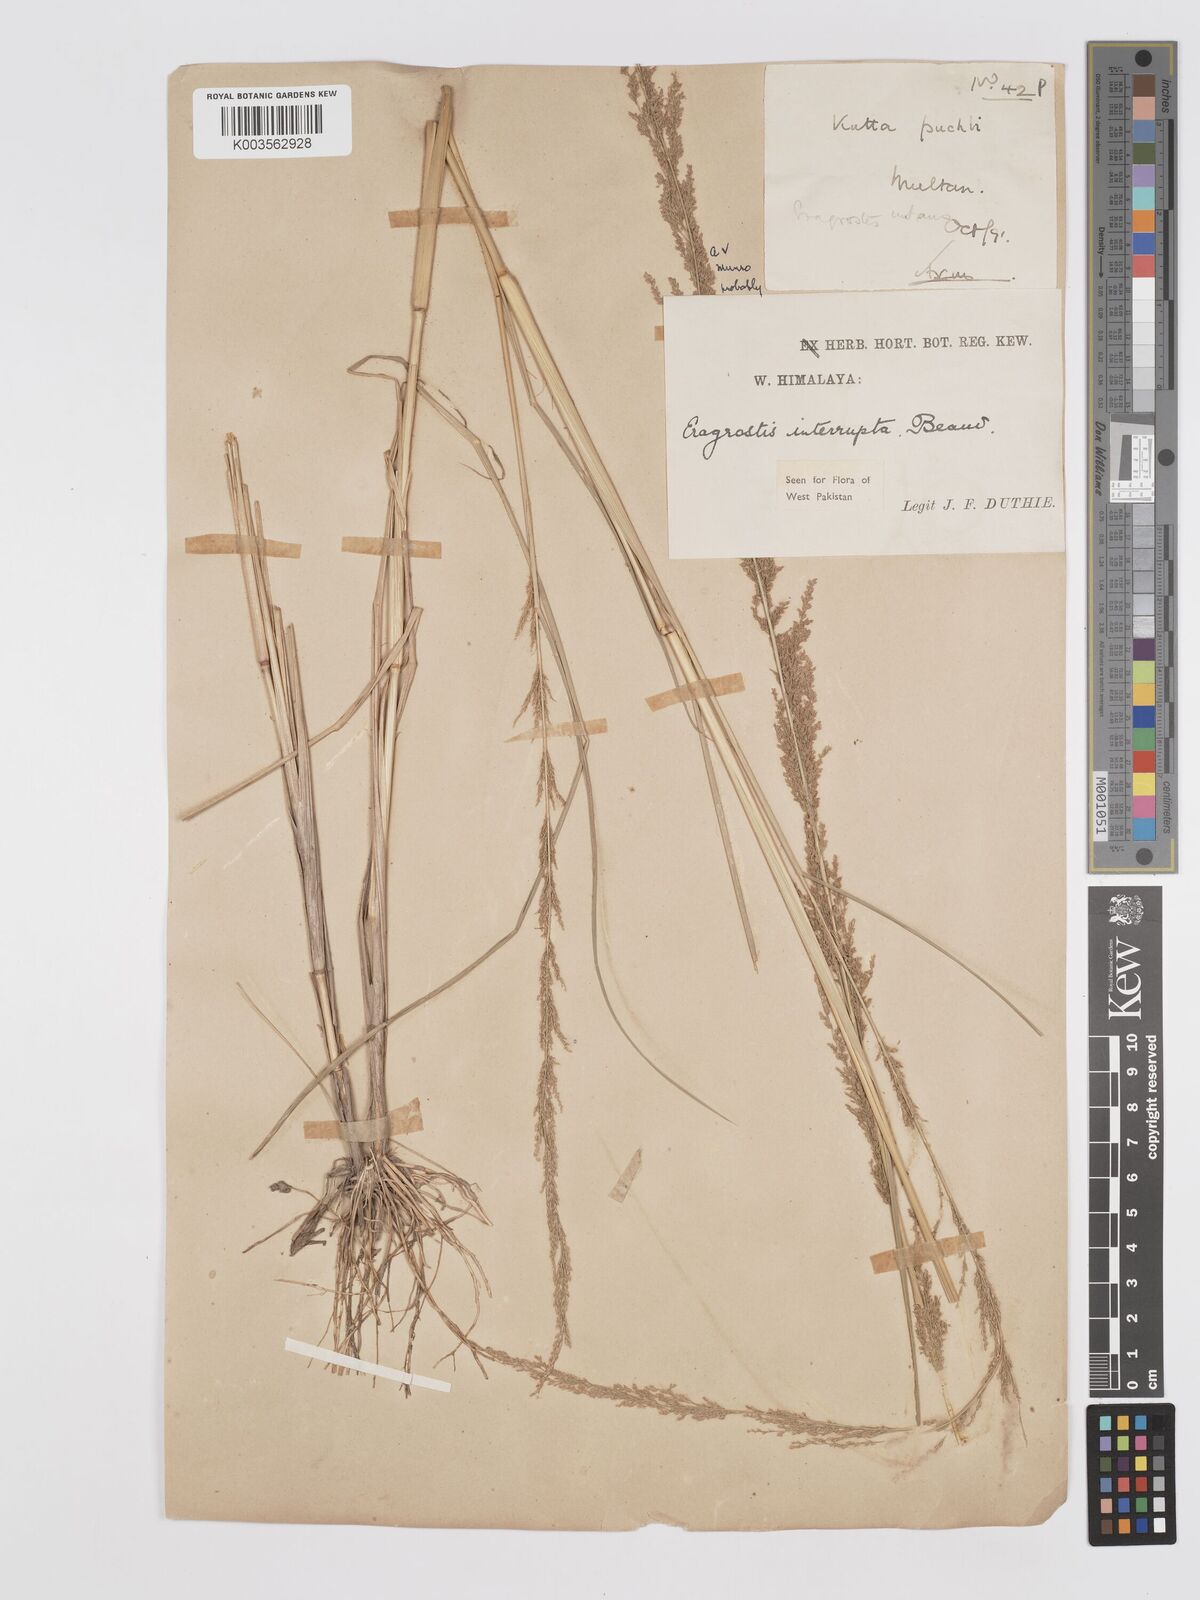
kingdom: Plantae
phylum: Tracheophyta
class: Liliopsida
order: Poales
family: Poaceae
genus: Eragrostis
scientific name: Eragrostis japonica
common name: Pond lovegrass
